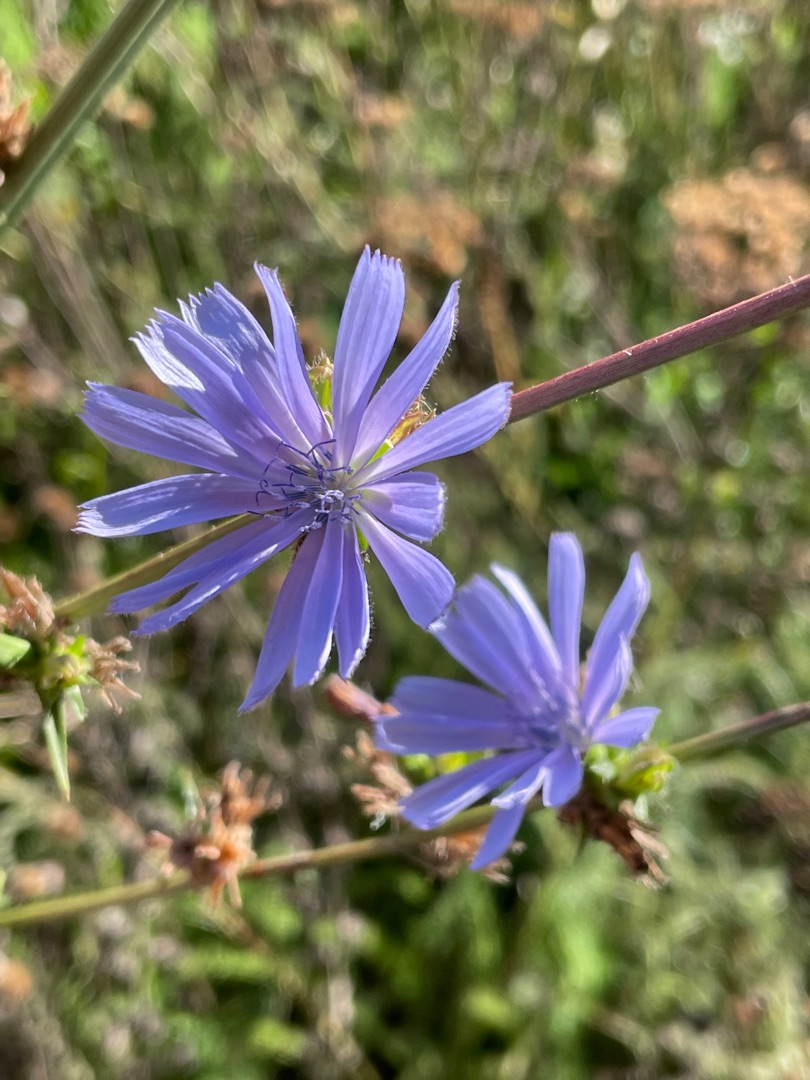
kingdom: Plantae
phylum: Tracheophyta
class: Magnoliopsida
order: Asterales
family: Asteraceae
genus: Cichorium
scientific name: Cichorium intybus
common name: Cikorie
